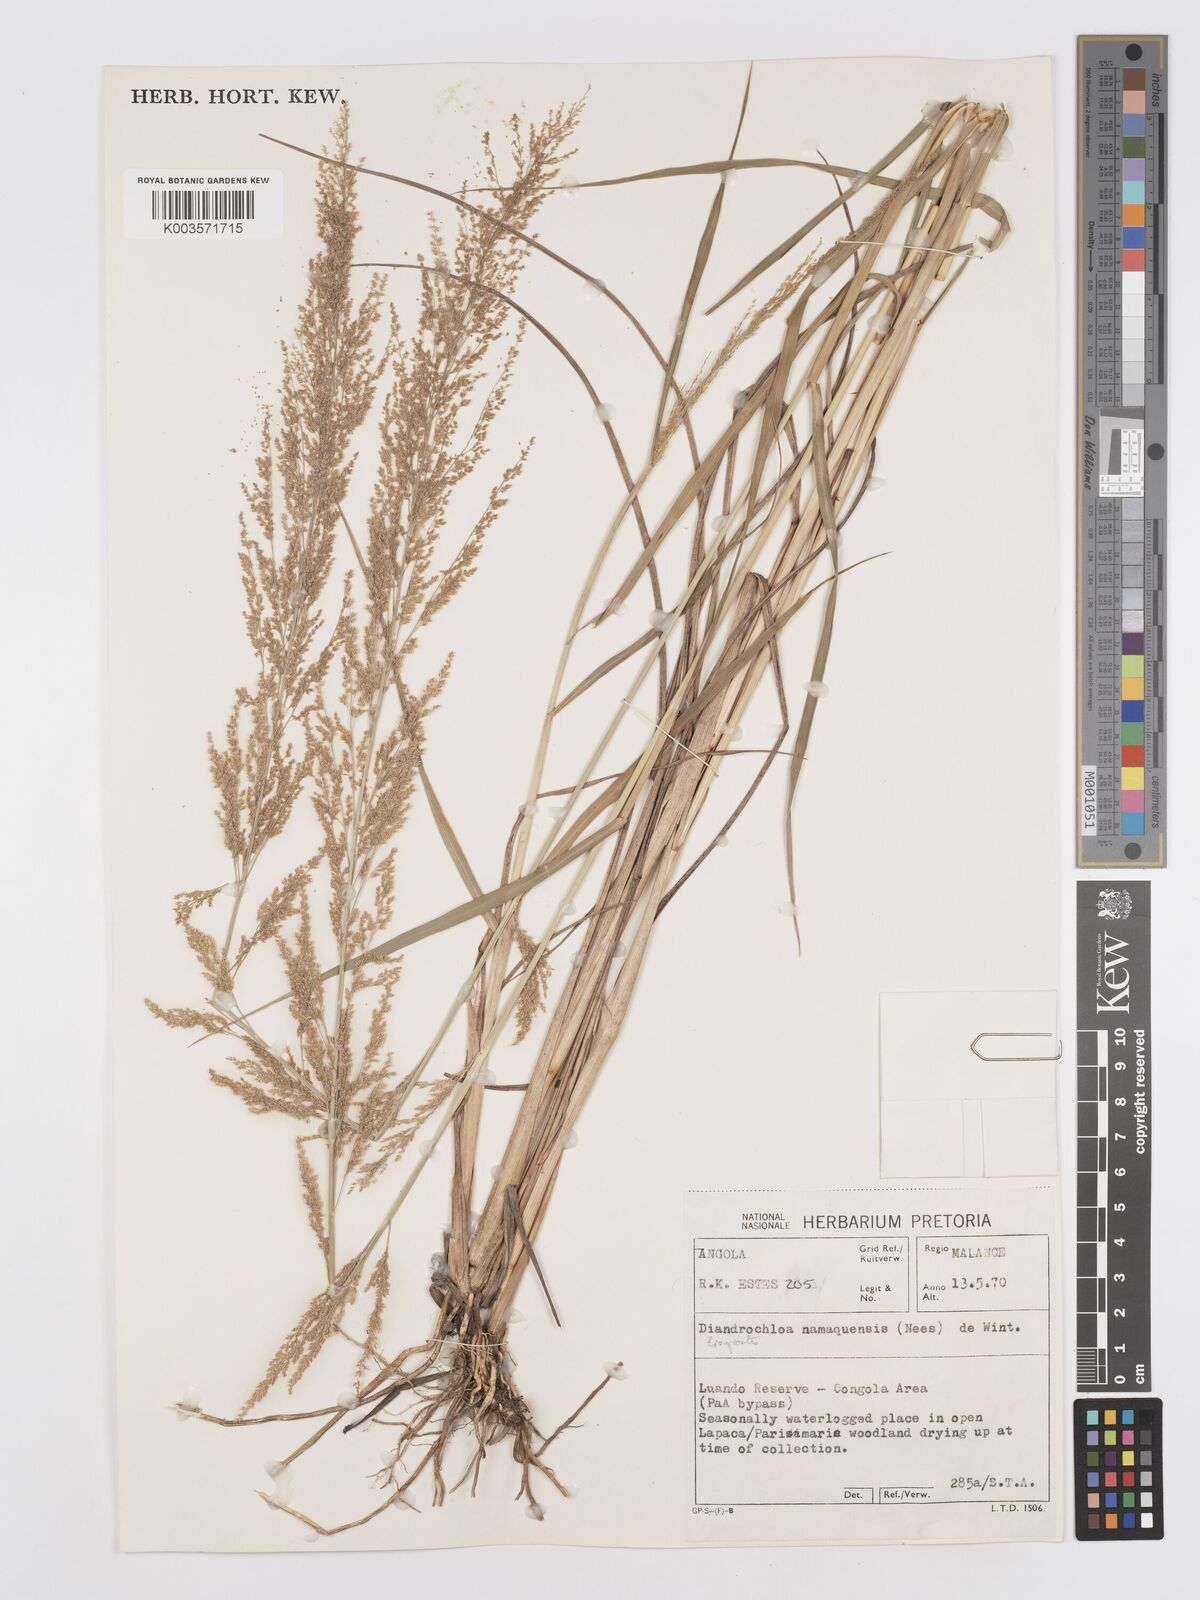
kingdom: Plantae
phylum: Tracheophyta
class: Liliopsida
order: Poales
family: Poaceae
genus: Eragrostis
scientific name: Eragrostis japonica
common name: Pond lovegrass
